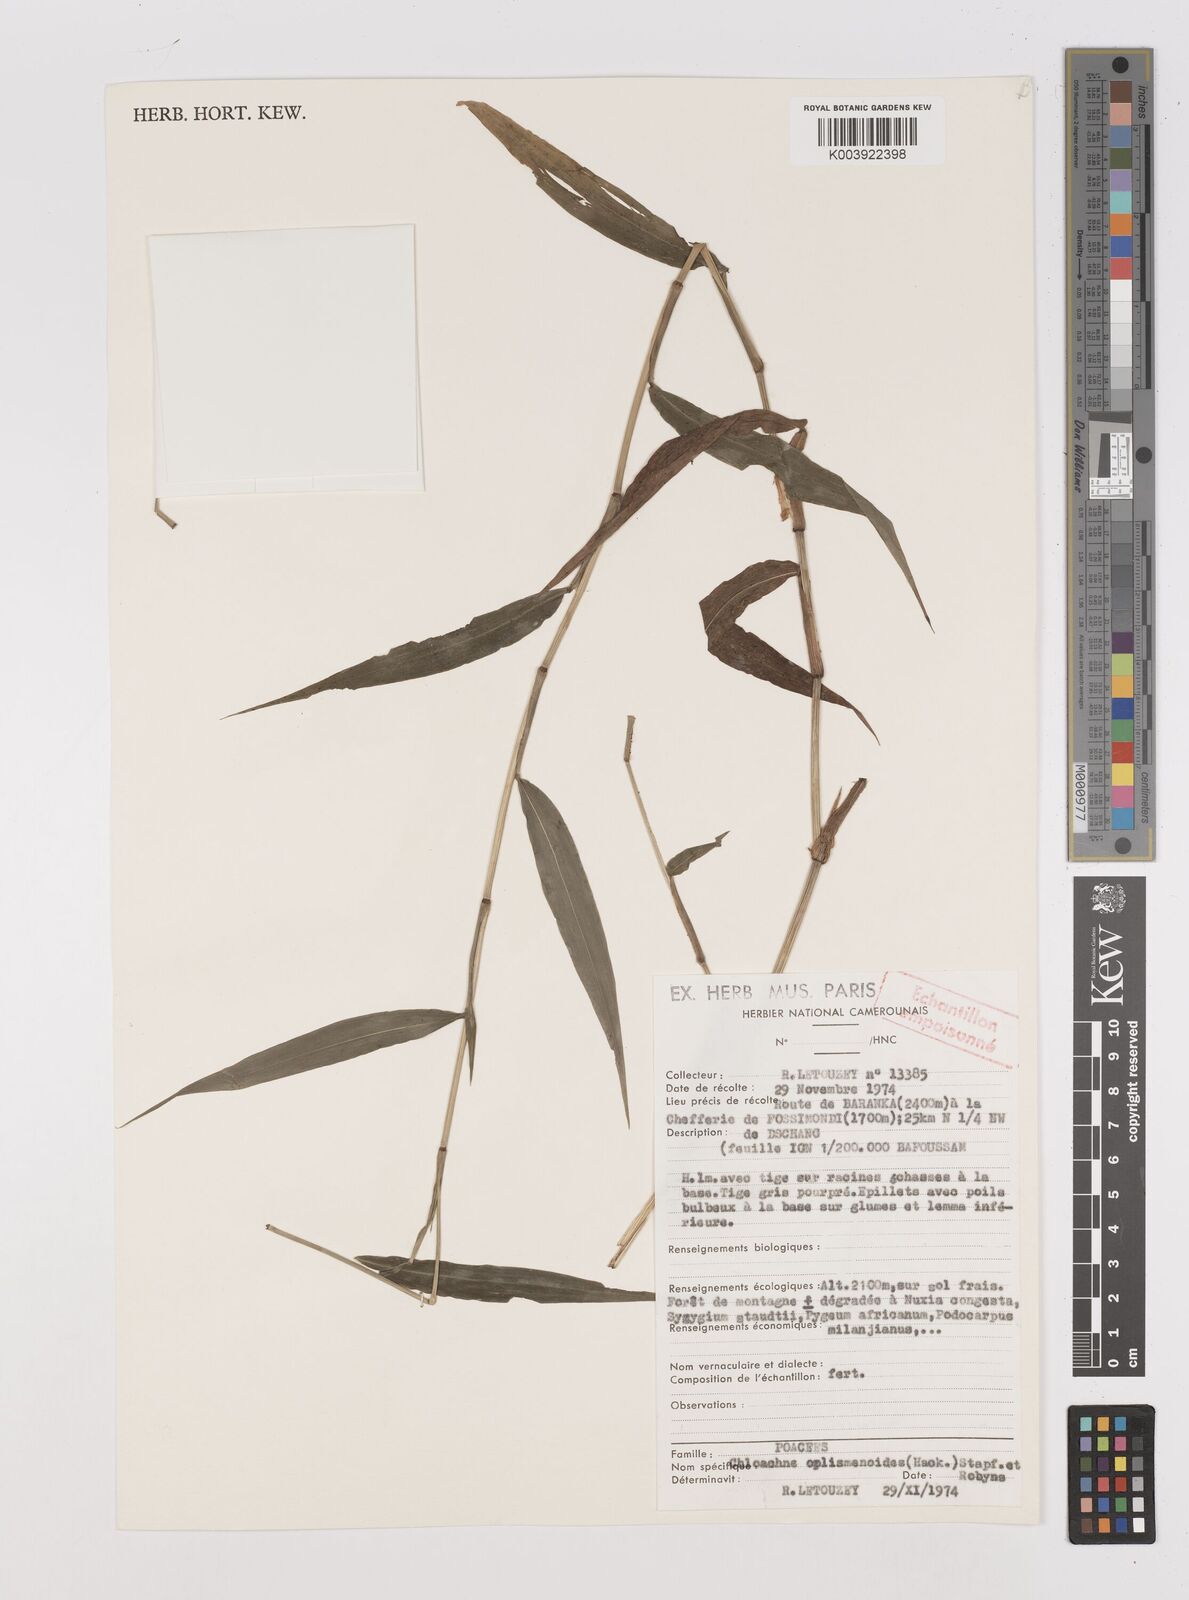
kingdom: Plantae
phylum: Tracheophyta
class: Liliopsida
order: Poales
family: Poaceae
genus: Poecilostachys
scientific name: Poecilostachys oplismenoides
